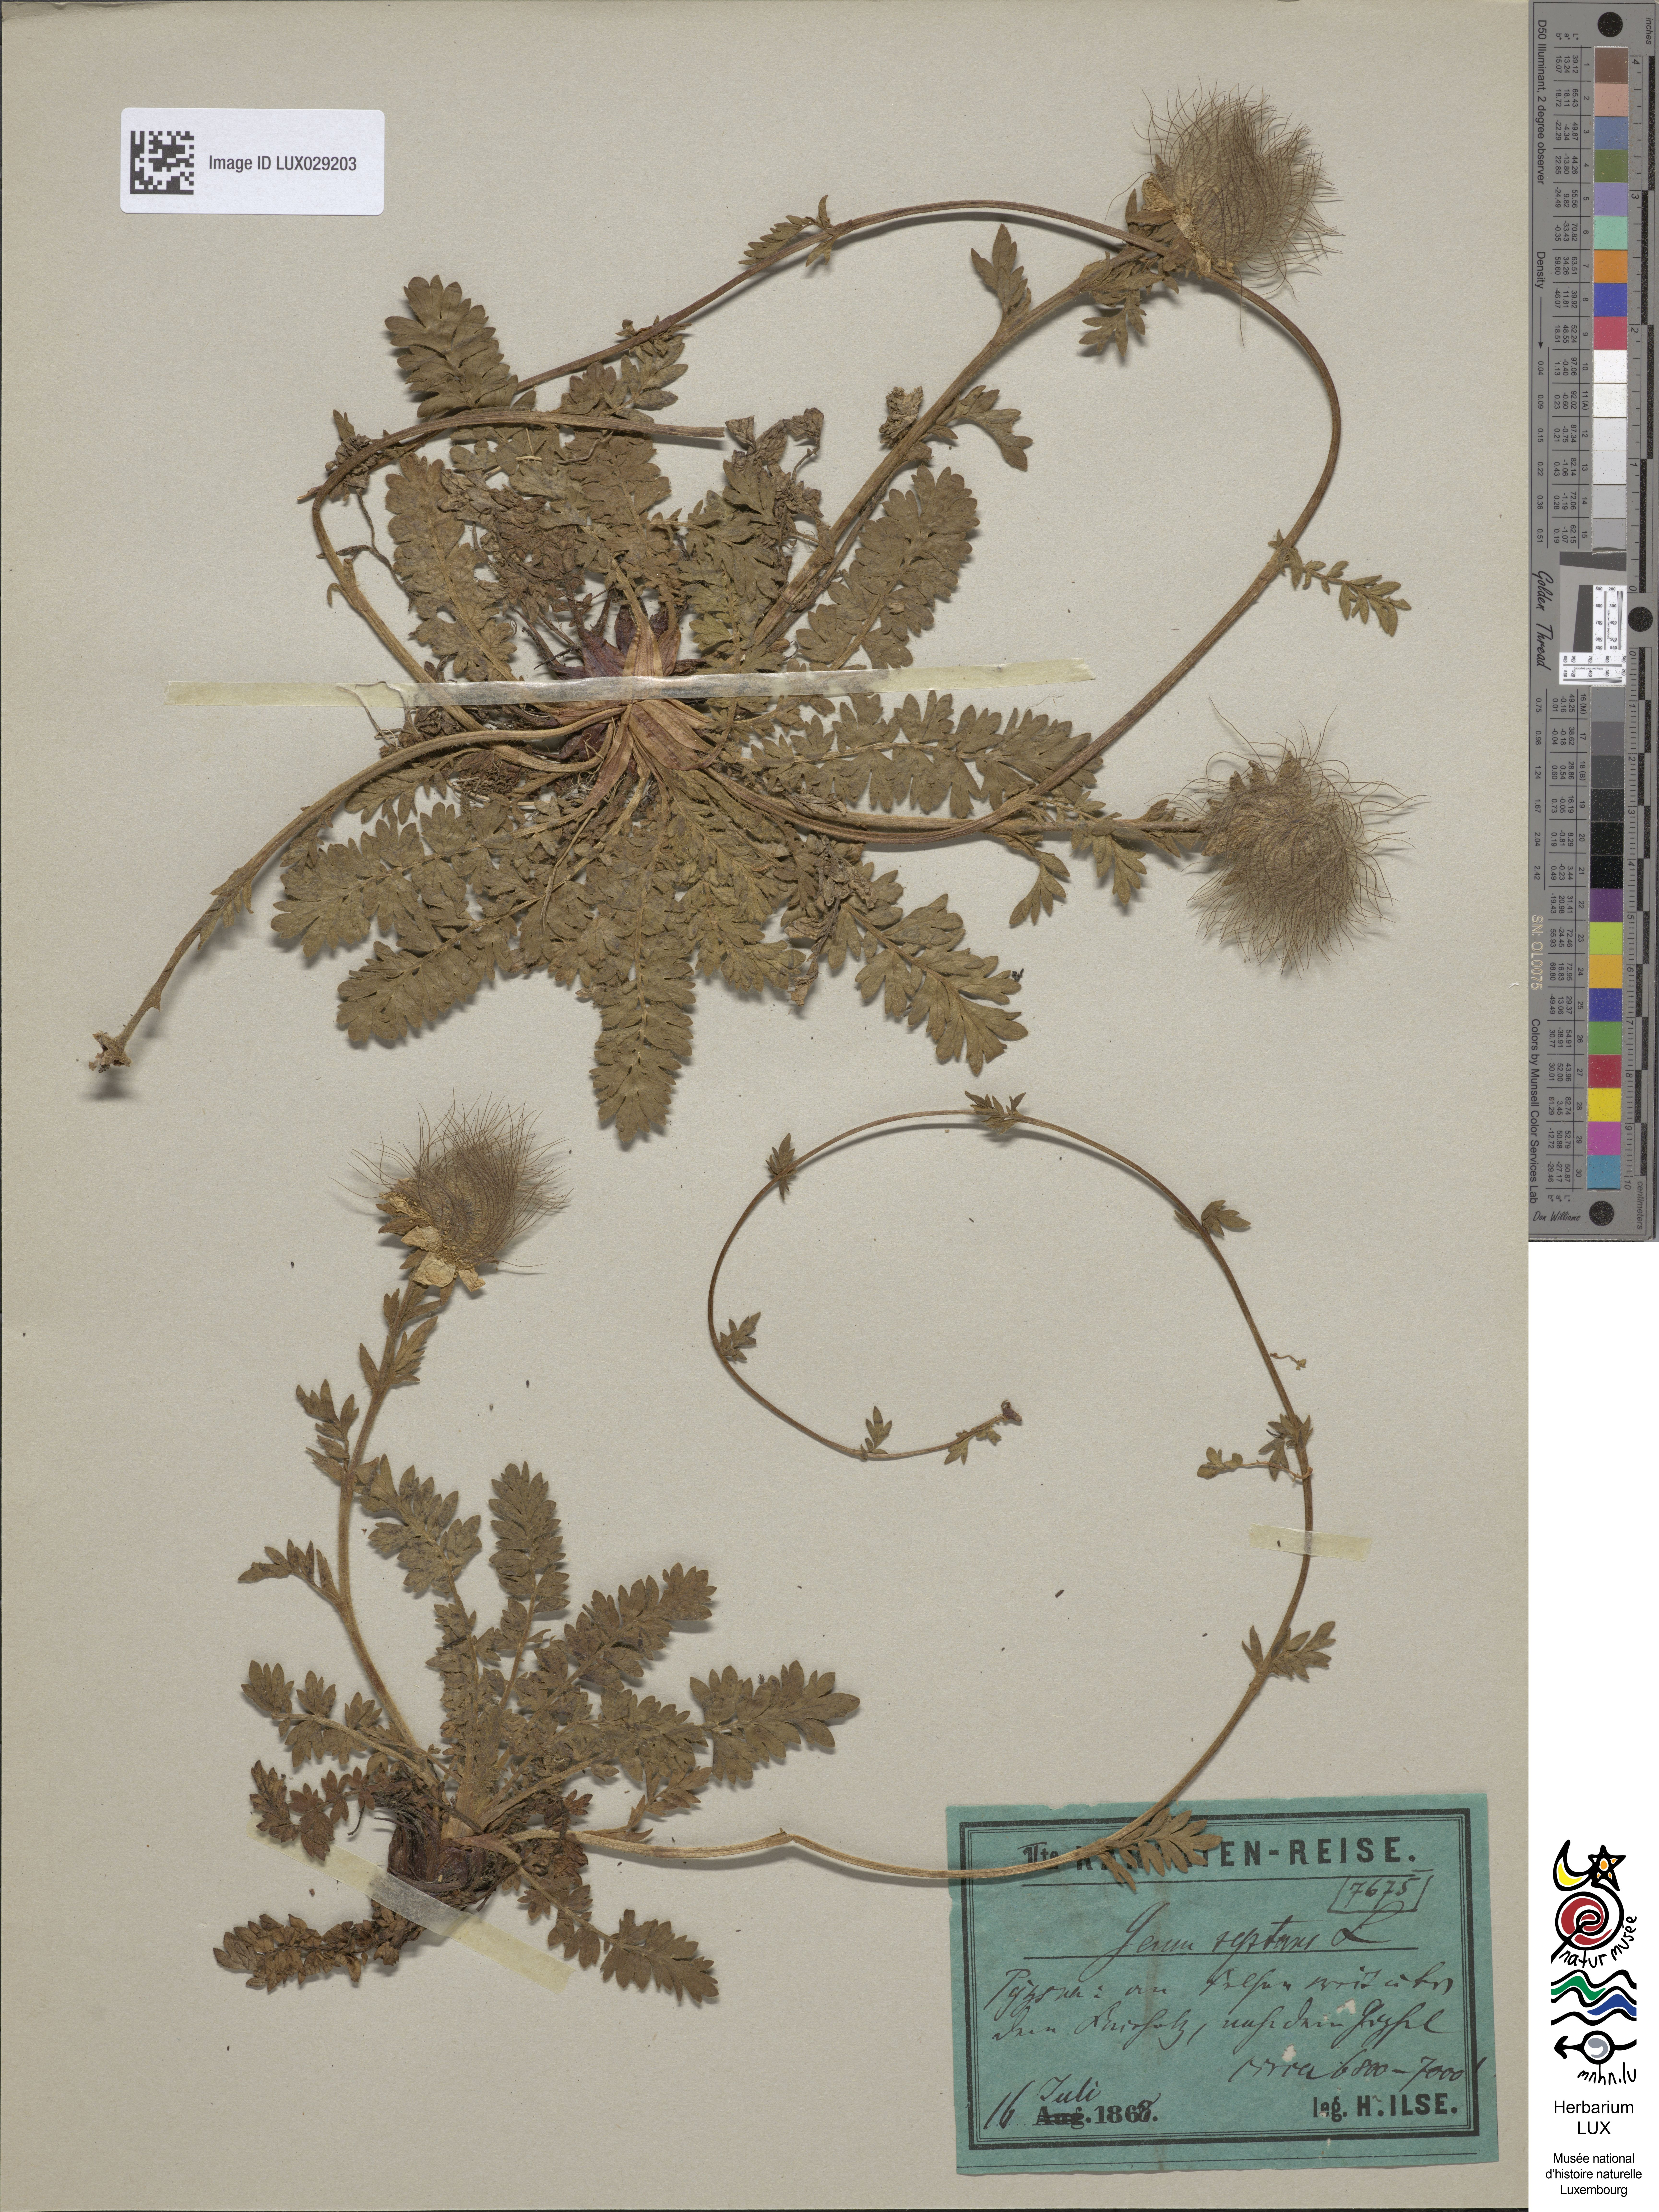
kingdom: Plantae
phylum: Tracheophyta
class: Magnoliopsida
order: Rosales
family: Rosaceae
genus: Geum
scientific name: Geum reptans
